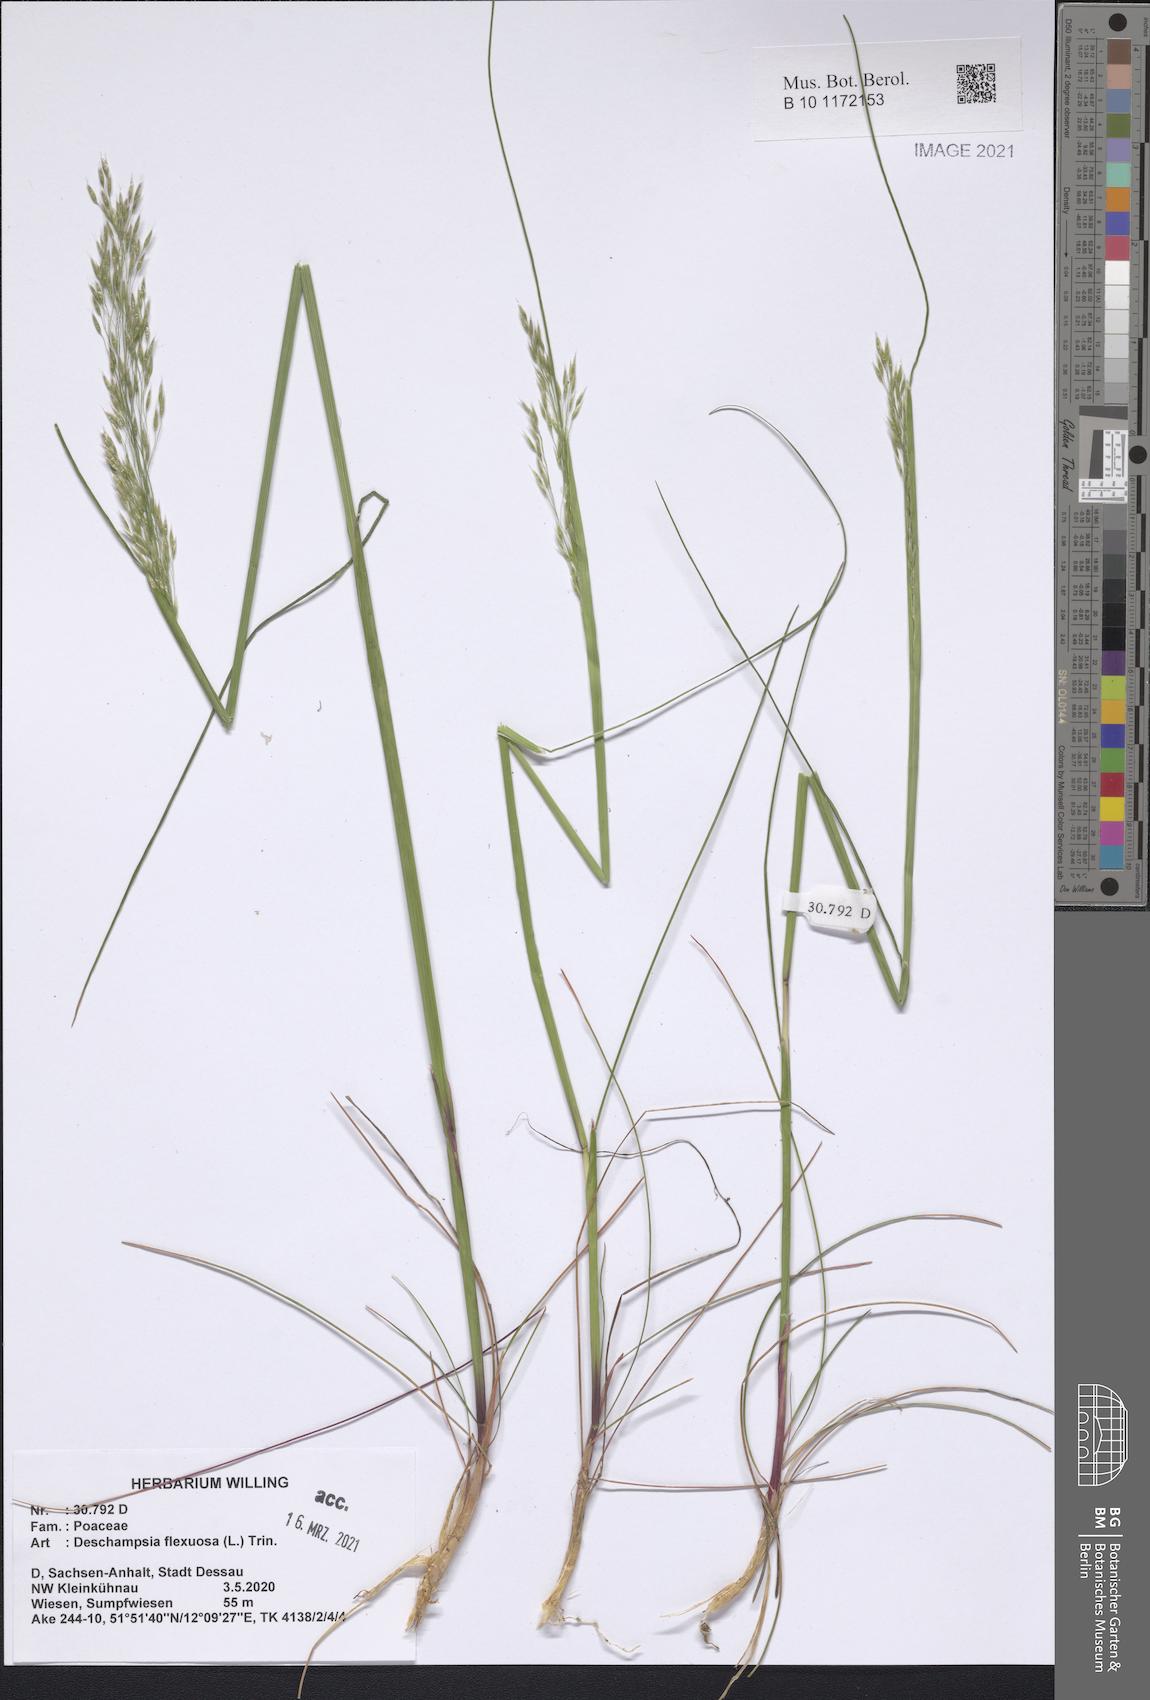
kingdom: Plantae
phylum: Tracheophyta
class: Liliopsida
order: Poales
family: Poaceae
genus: Avenella
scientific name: Avenella flexuosa
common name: Wavy hairgrass
